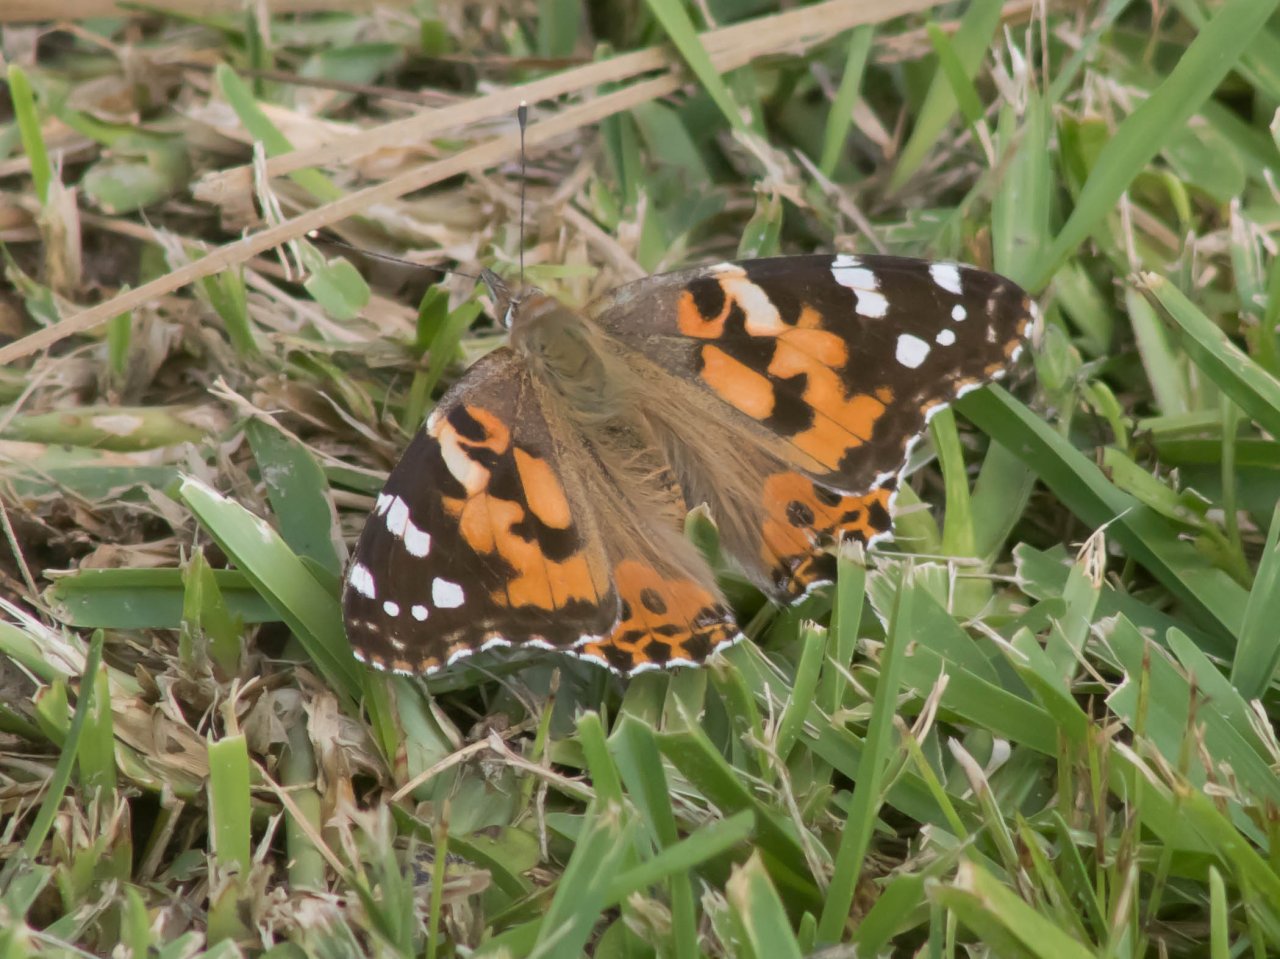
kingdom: Animalia
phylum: Arthropoda
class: Insecta
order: Lepidoptera
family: Nymphalidae
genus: Vanessa
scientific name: Vanessa cardui
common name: Painted Lady
